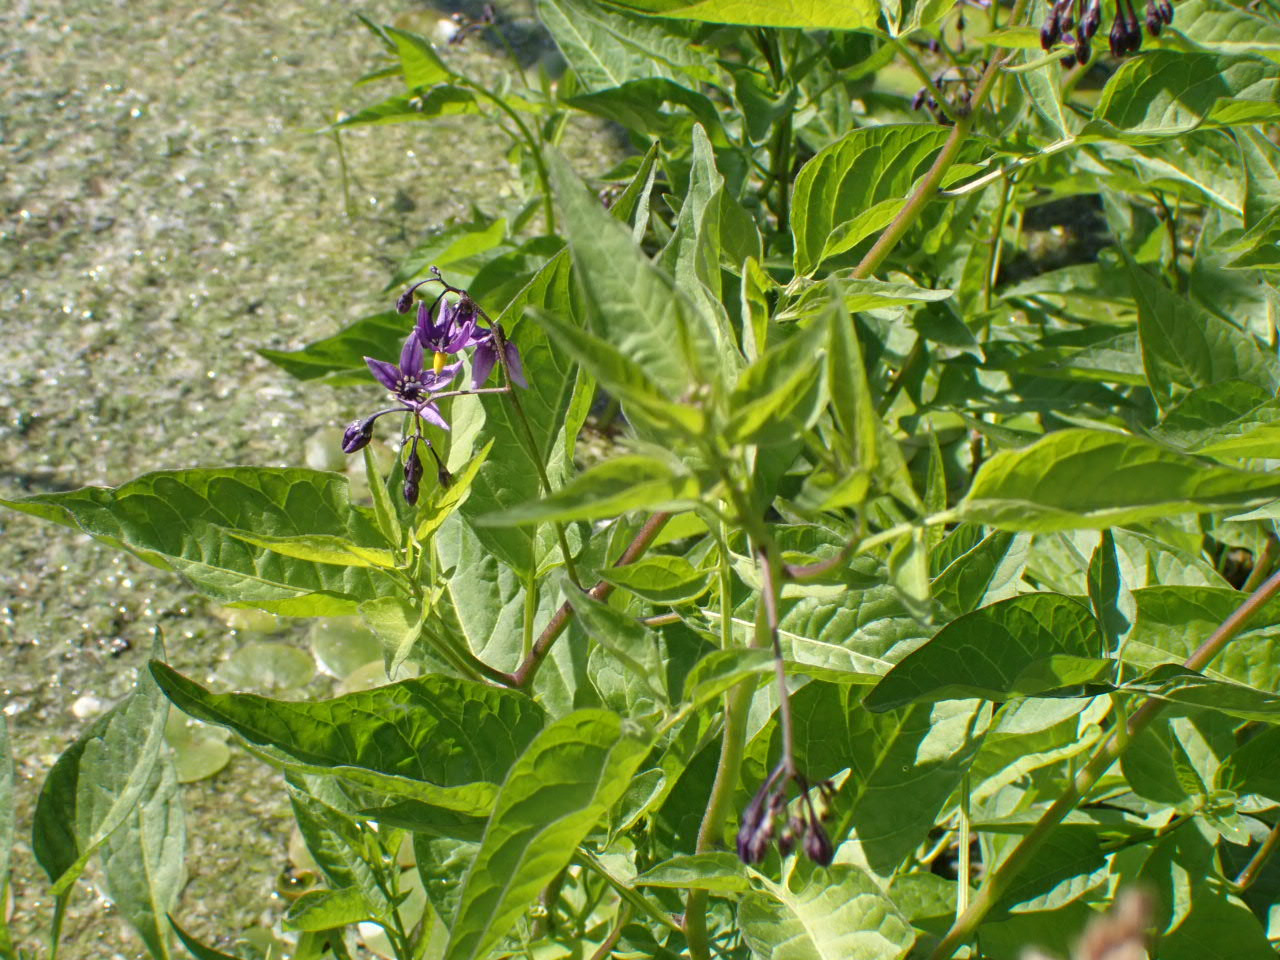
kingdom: Plantae
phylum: Tracheophyta
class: Magnoliopsida
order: Solanales
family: Solanaceae
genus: Solanum
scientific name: Solanum dulcamara
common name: Bittersød natskygge
